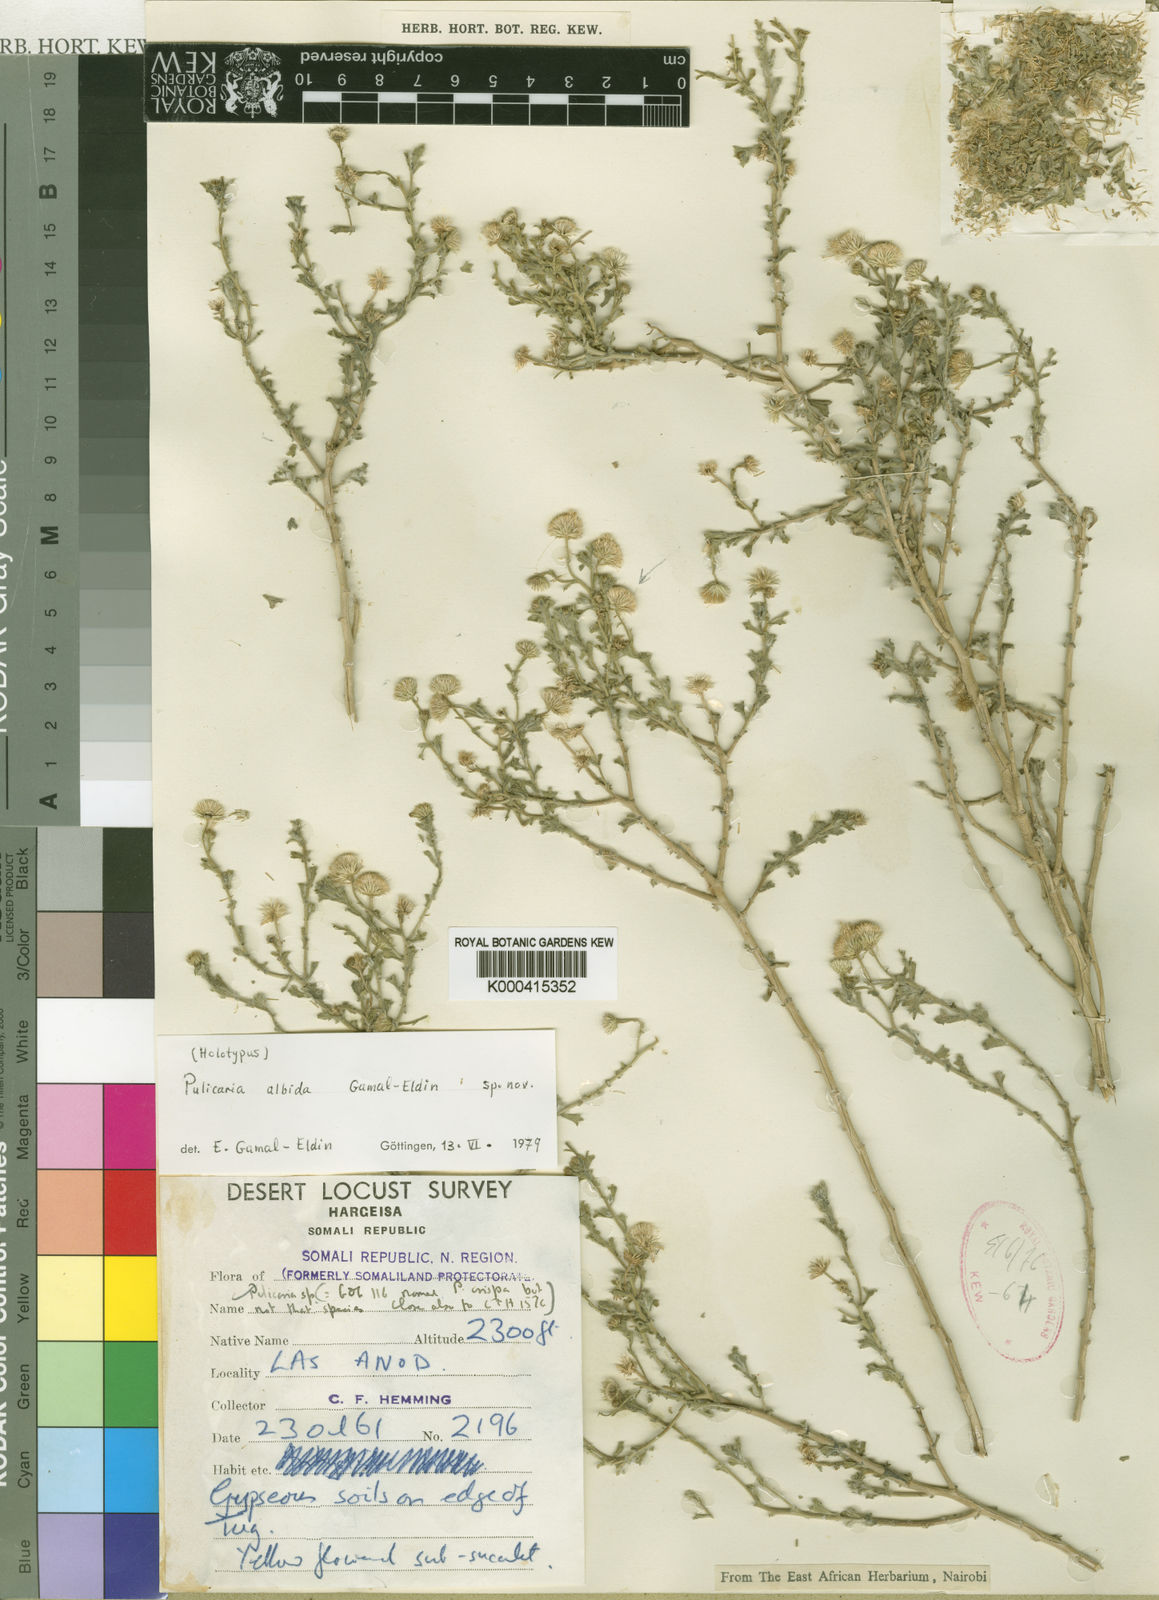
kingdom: Plantae
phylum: Tracheophyta
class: Magnoliopsida
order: Asterales
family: Asteraceae
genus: Pulicaria
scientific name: Pulicaria albida
